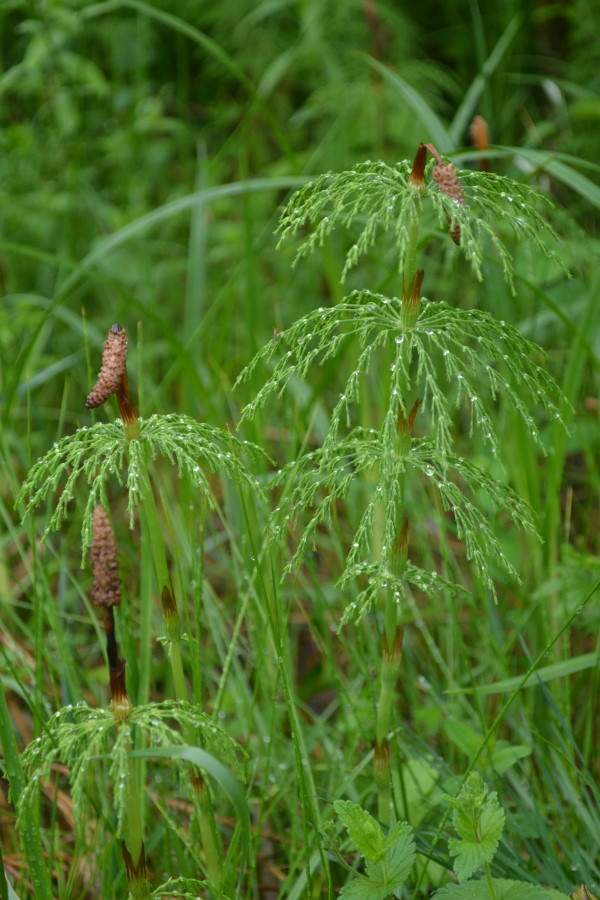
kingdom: Plantae
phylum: Tracheophyta
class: Polypodiopsida
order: Equisetales
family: Equisetaceae
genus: Equisetum
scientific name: Equisetum sylvaticum
